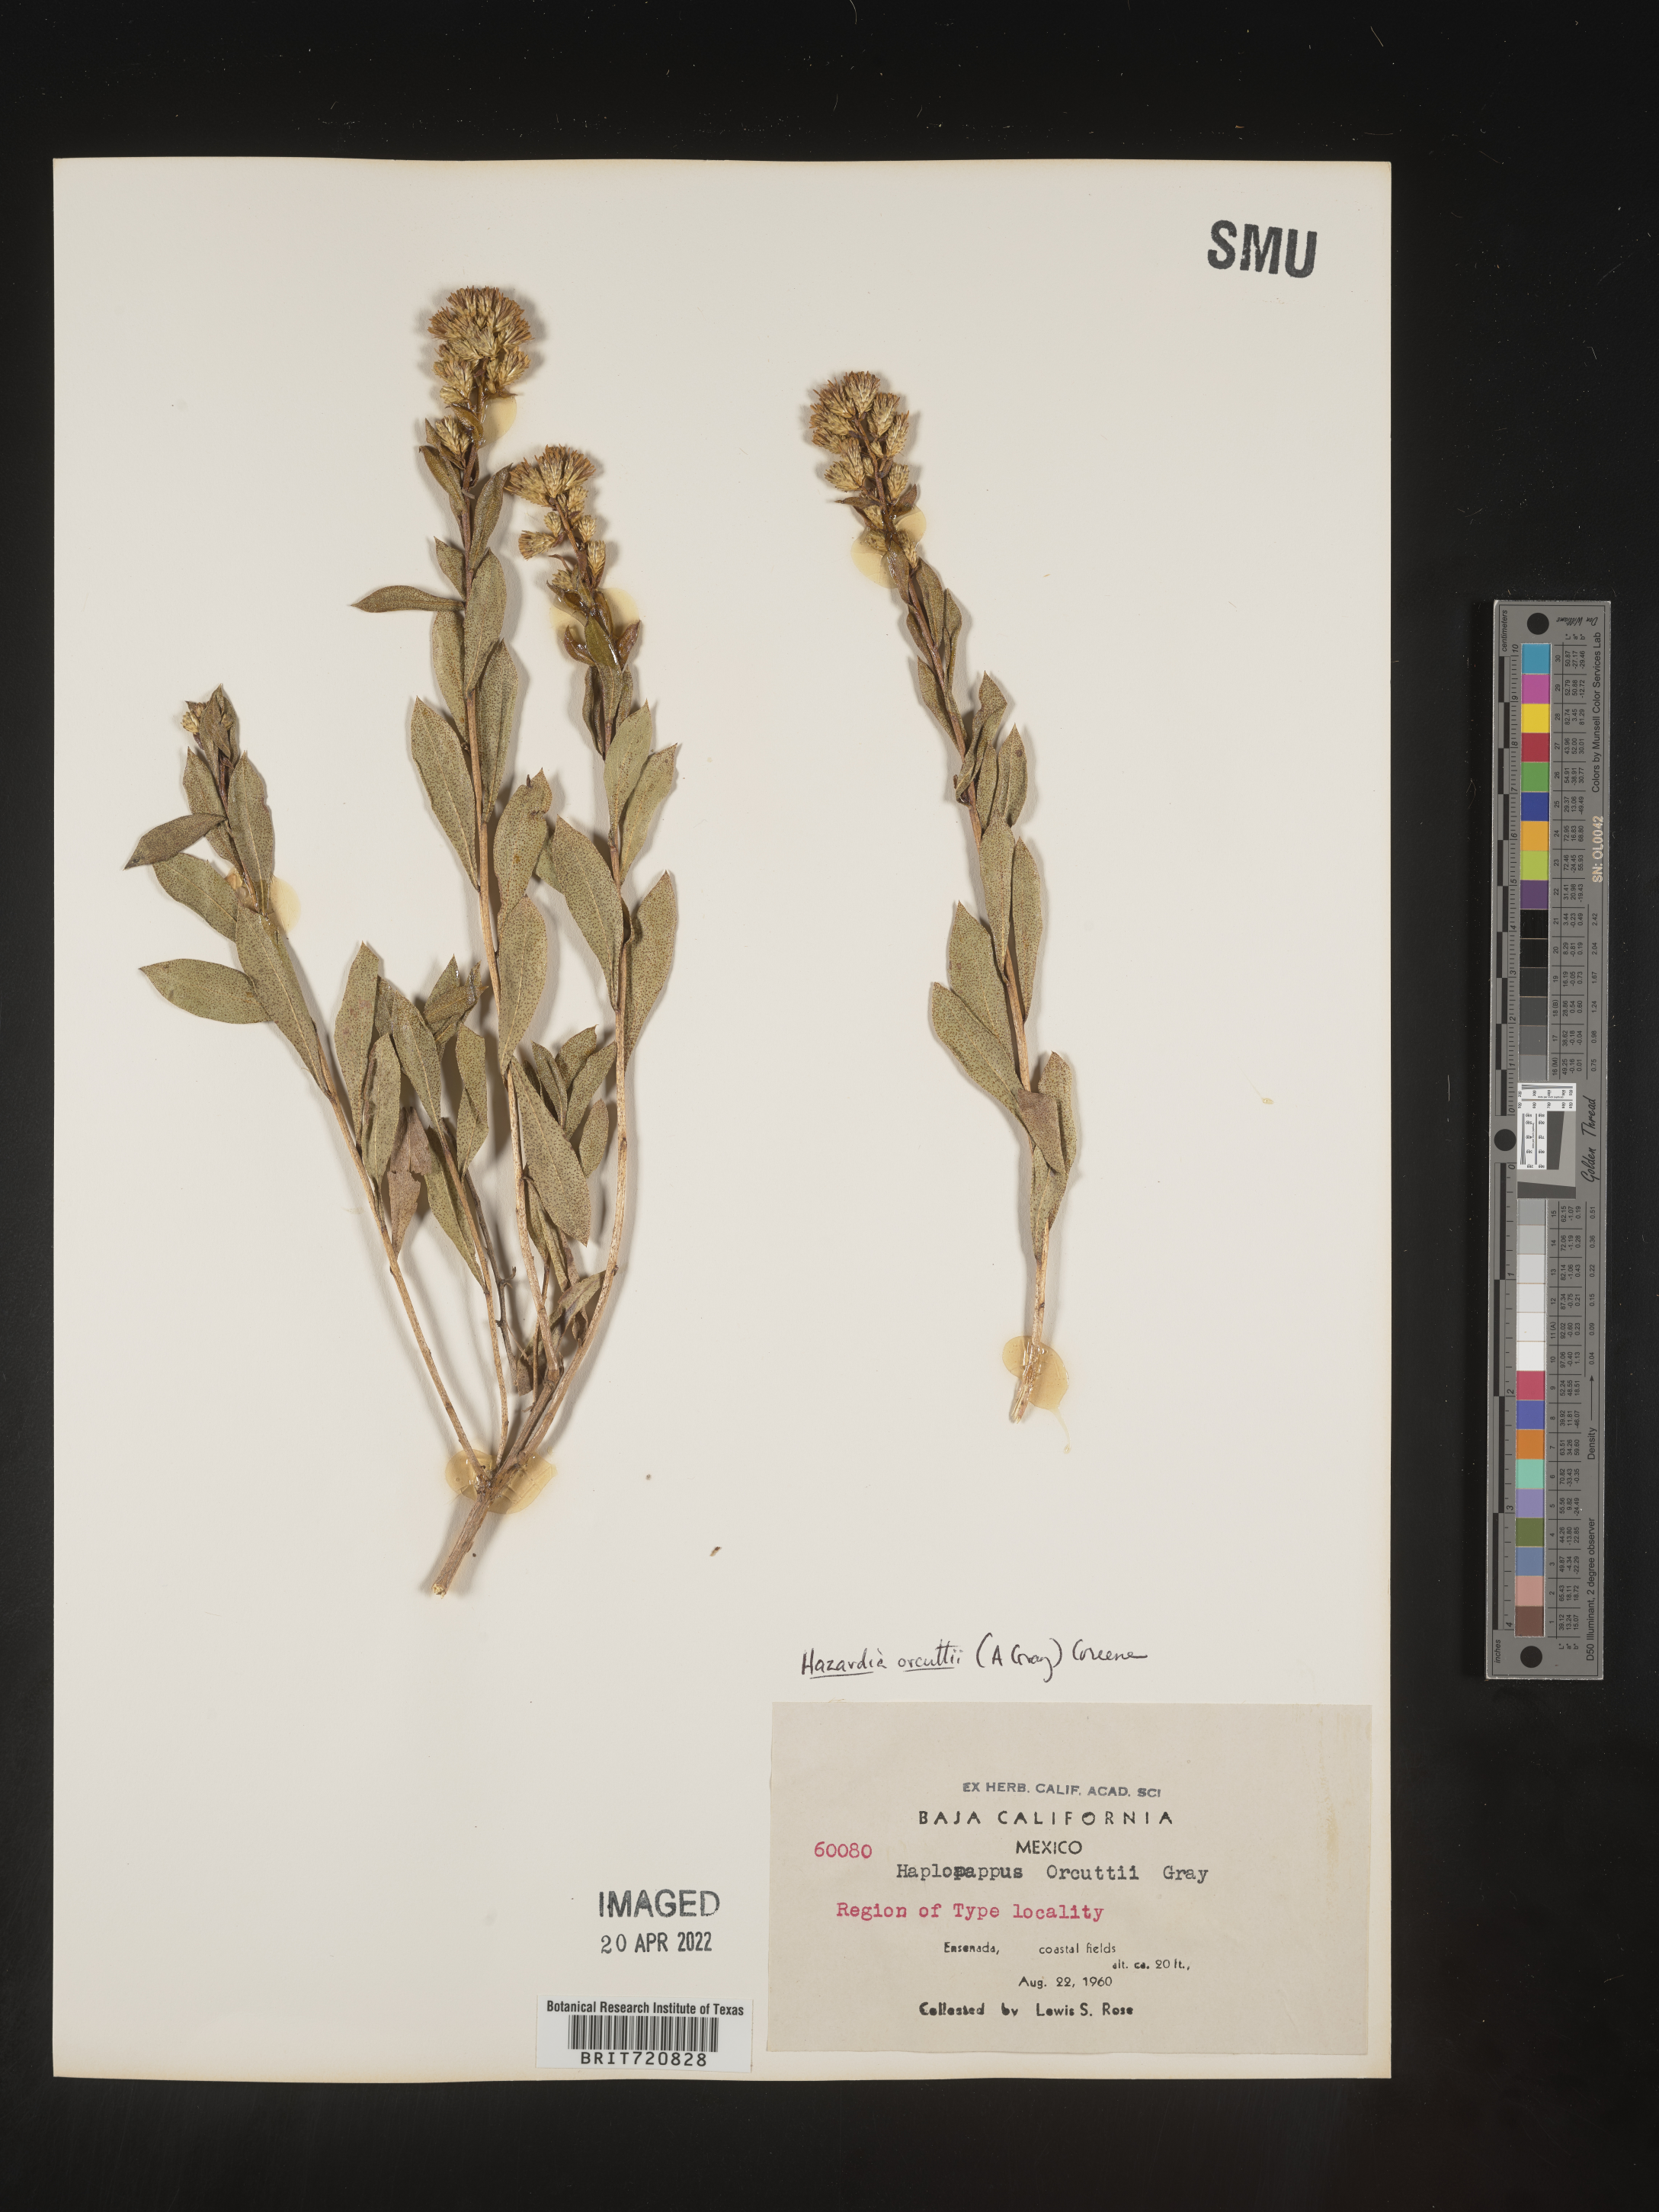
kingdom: Plantae
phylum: Tracheophyta
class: Magnoliopsida
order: Asterales
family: Asteraceae
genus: Hazardia
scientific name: Hazardia
